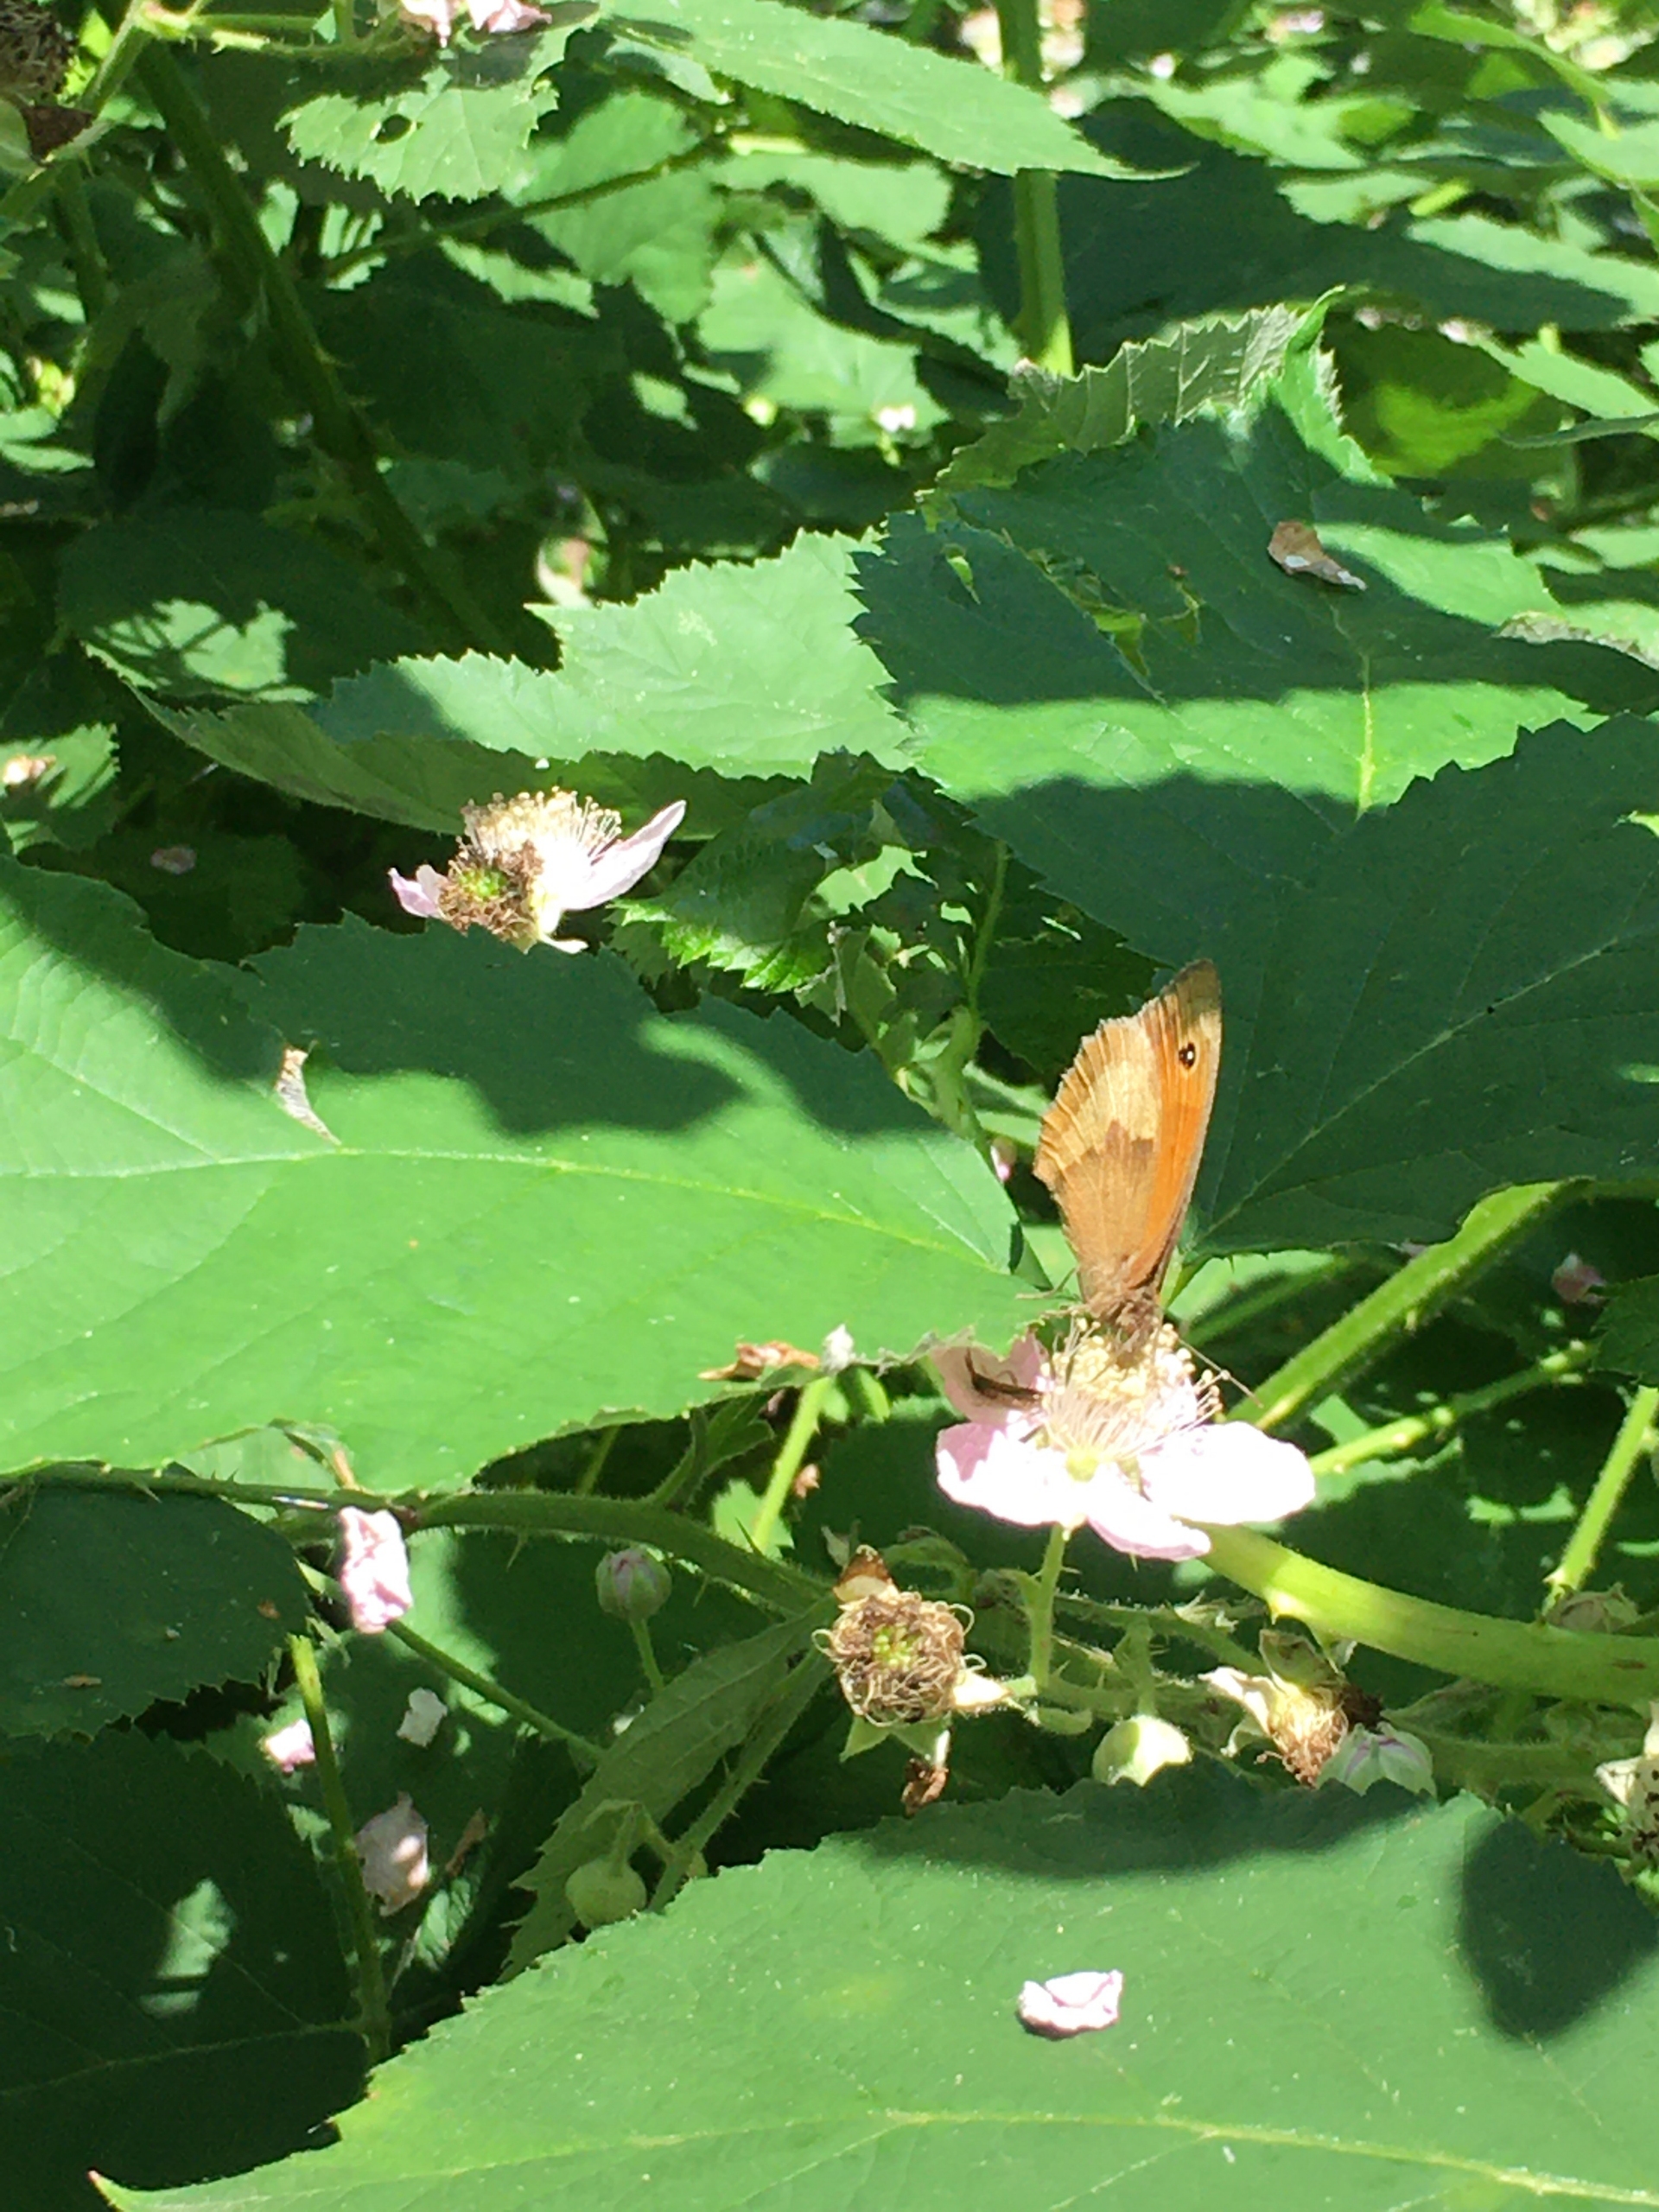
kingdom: Animalia
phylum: Arthropoda
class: Insecta
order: Lepidoptera
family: Nymphalidae
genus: Maniola
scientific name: Maniola jurtina
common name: Græsrandøje
